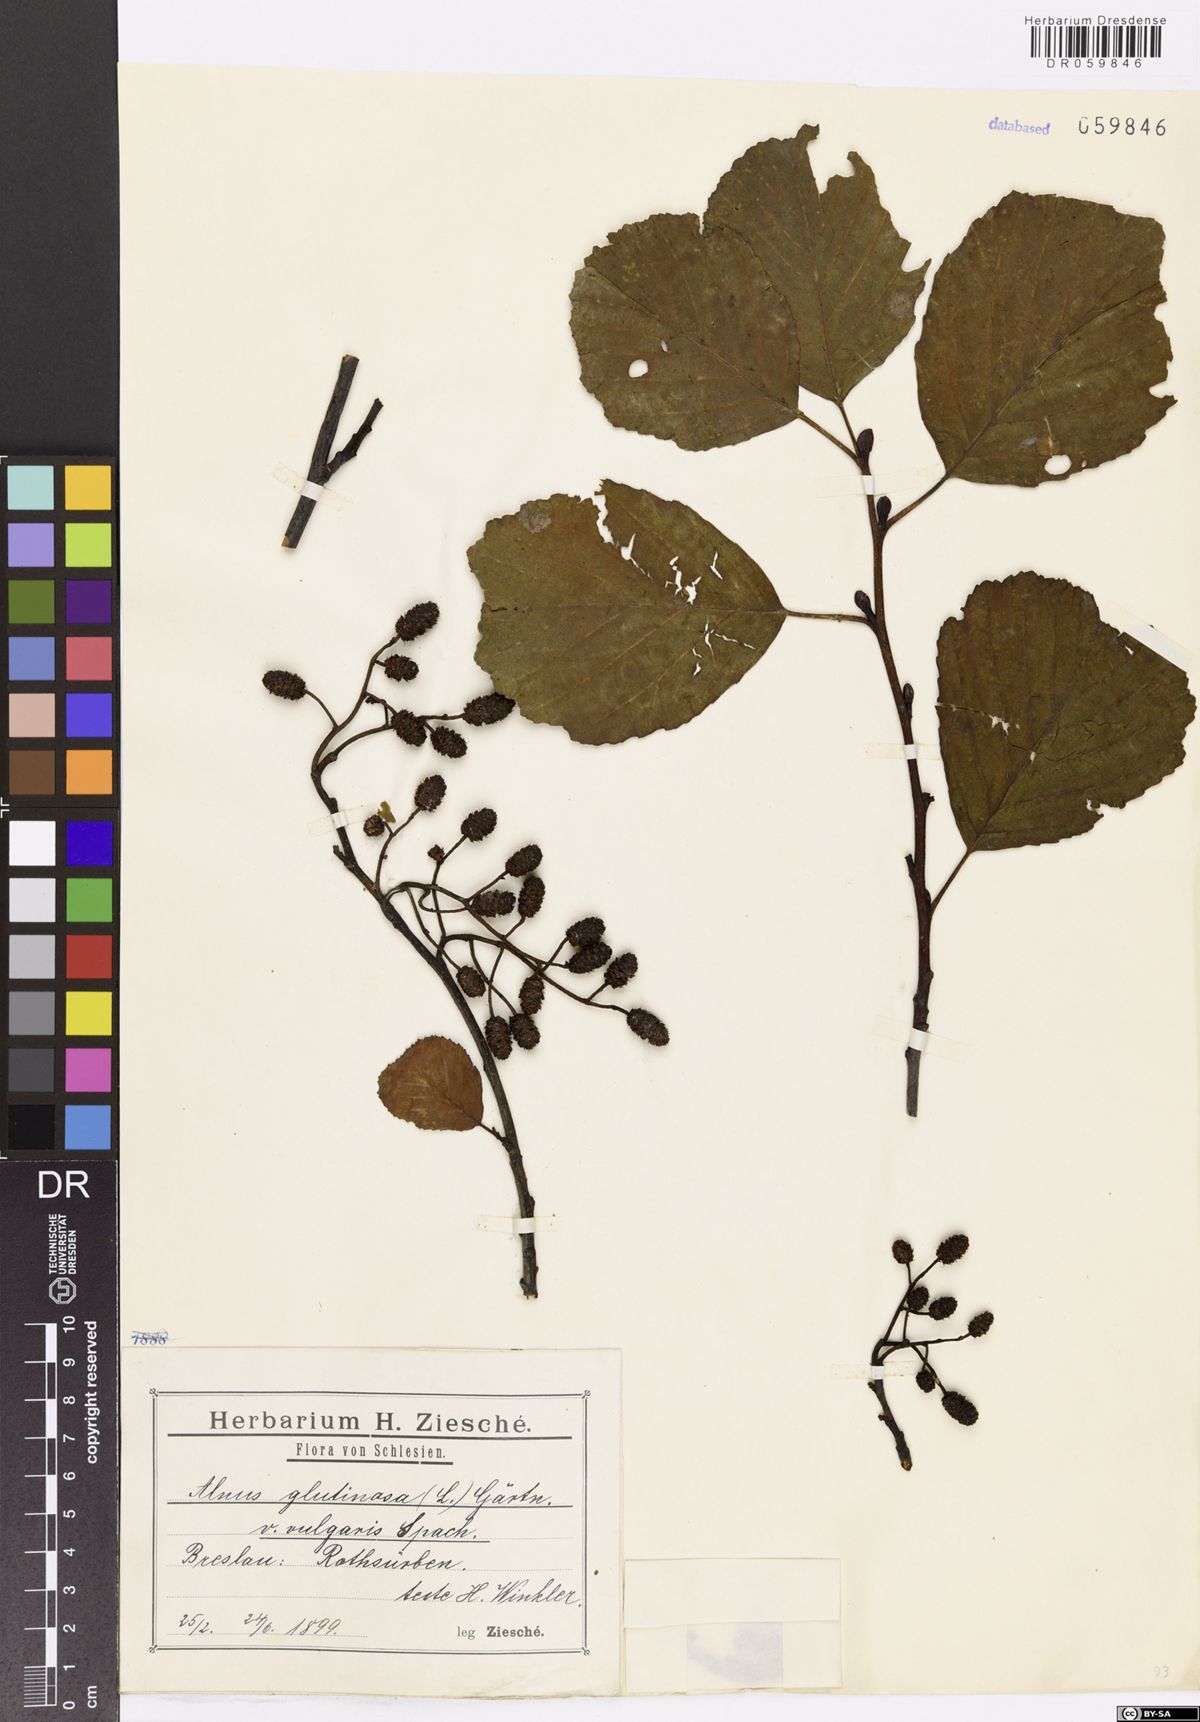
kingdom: Plantae
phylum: Tracheophyta
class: Magnoliopsida
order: Fagales
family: Betulaceae
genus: Alnus
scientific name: Alnus glutinosa
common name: Black alder
